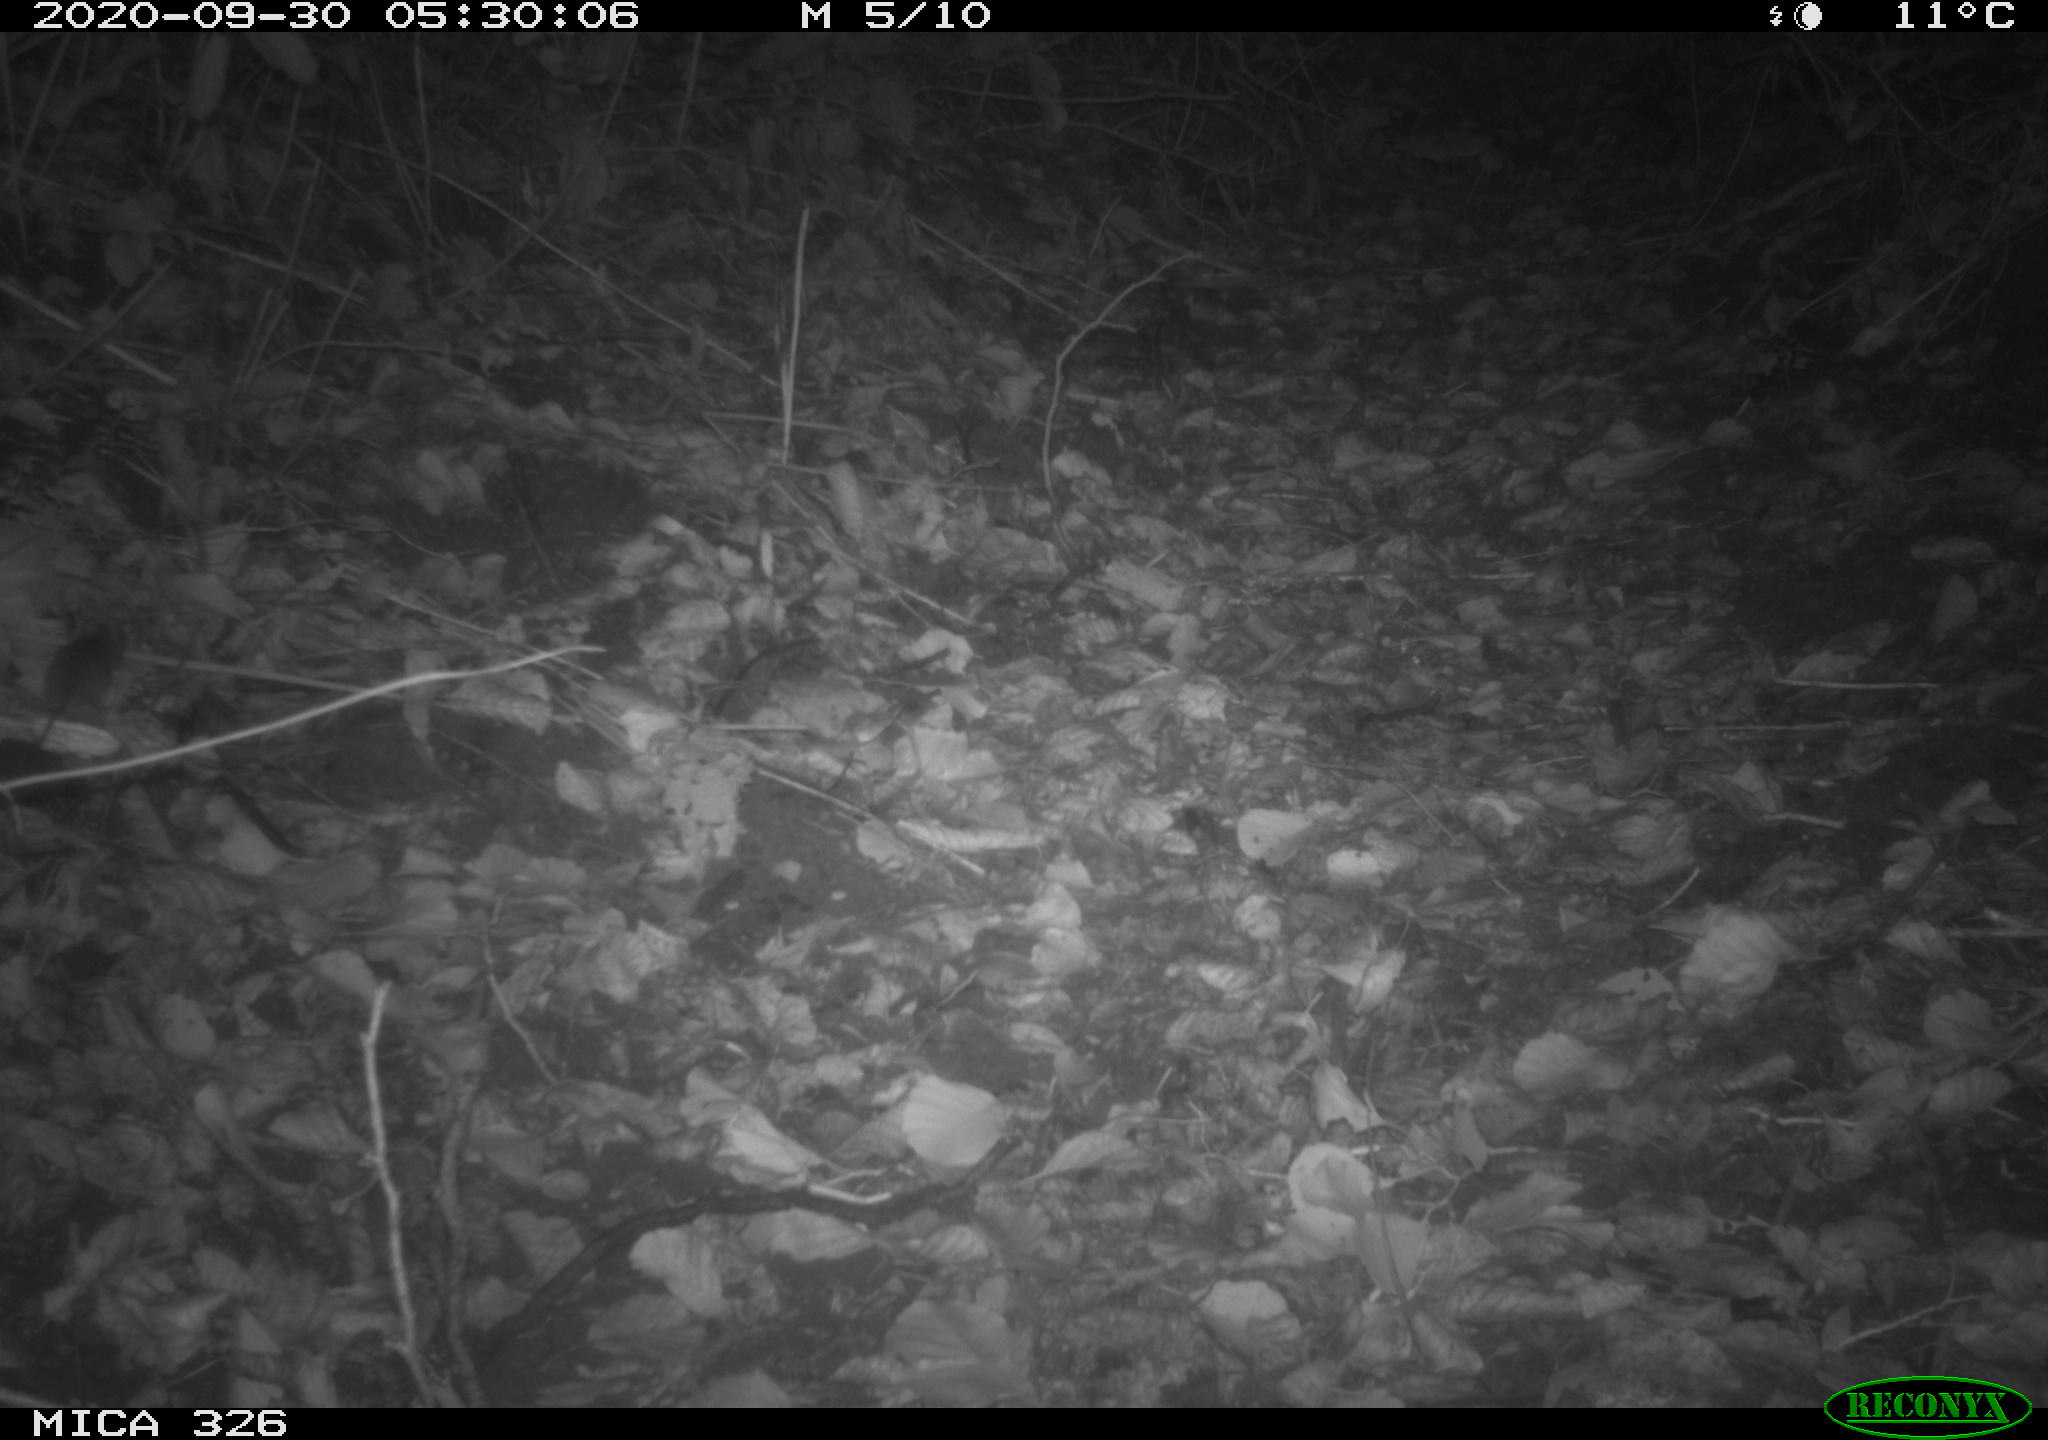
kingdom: Animalia
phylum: Chordata
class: Mammalia
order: Rodentia
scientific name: Rodentia
